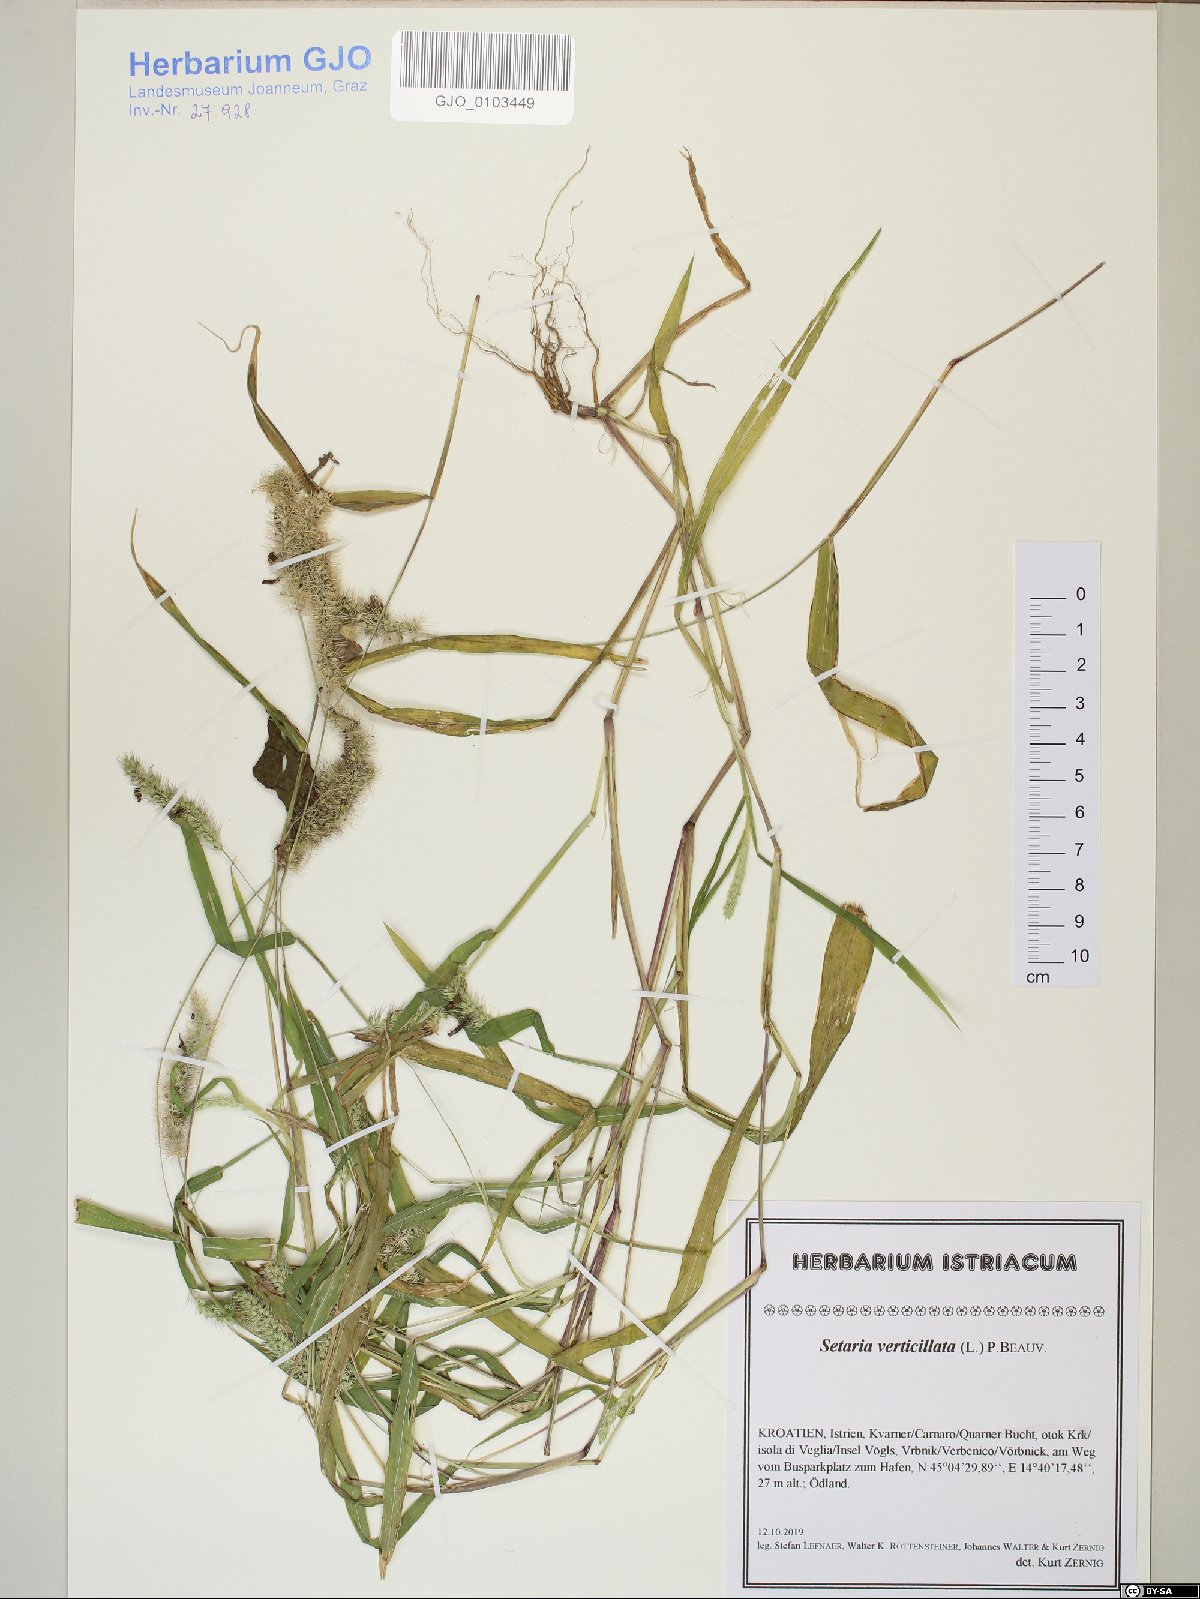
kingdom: Plantae
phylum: Tracheophyta
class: Liliopsida
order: Poales
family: Poaceae
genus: Setaria
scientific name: Setaria verticillata
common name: Hooked bristlegrass
